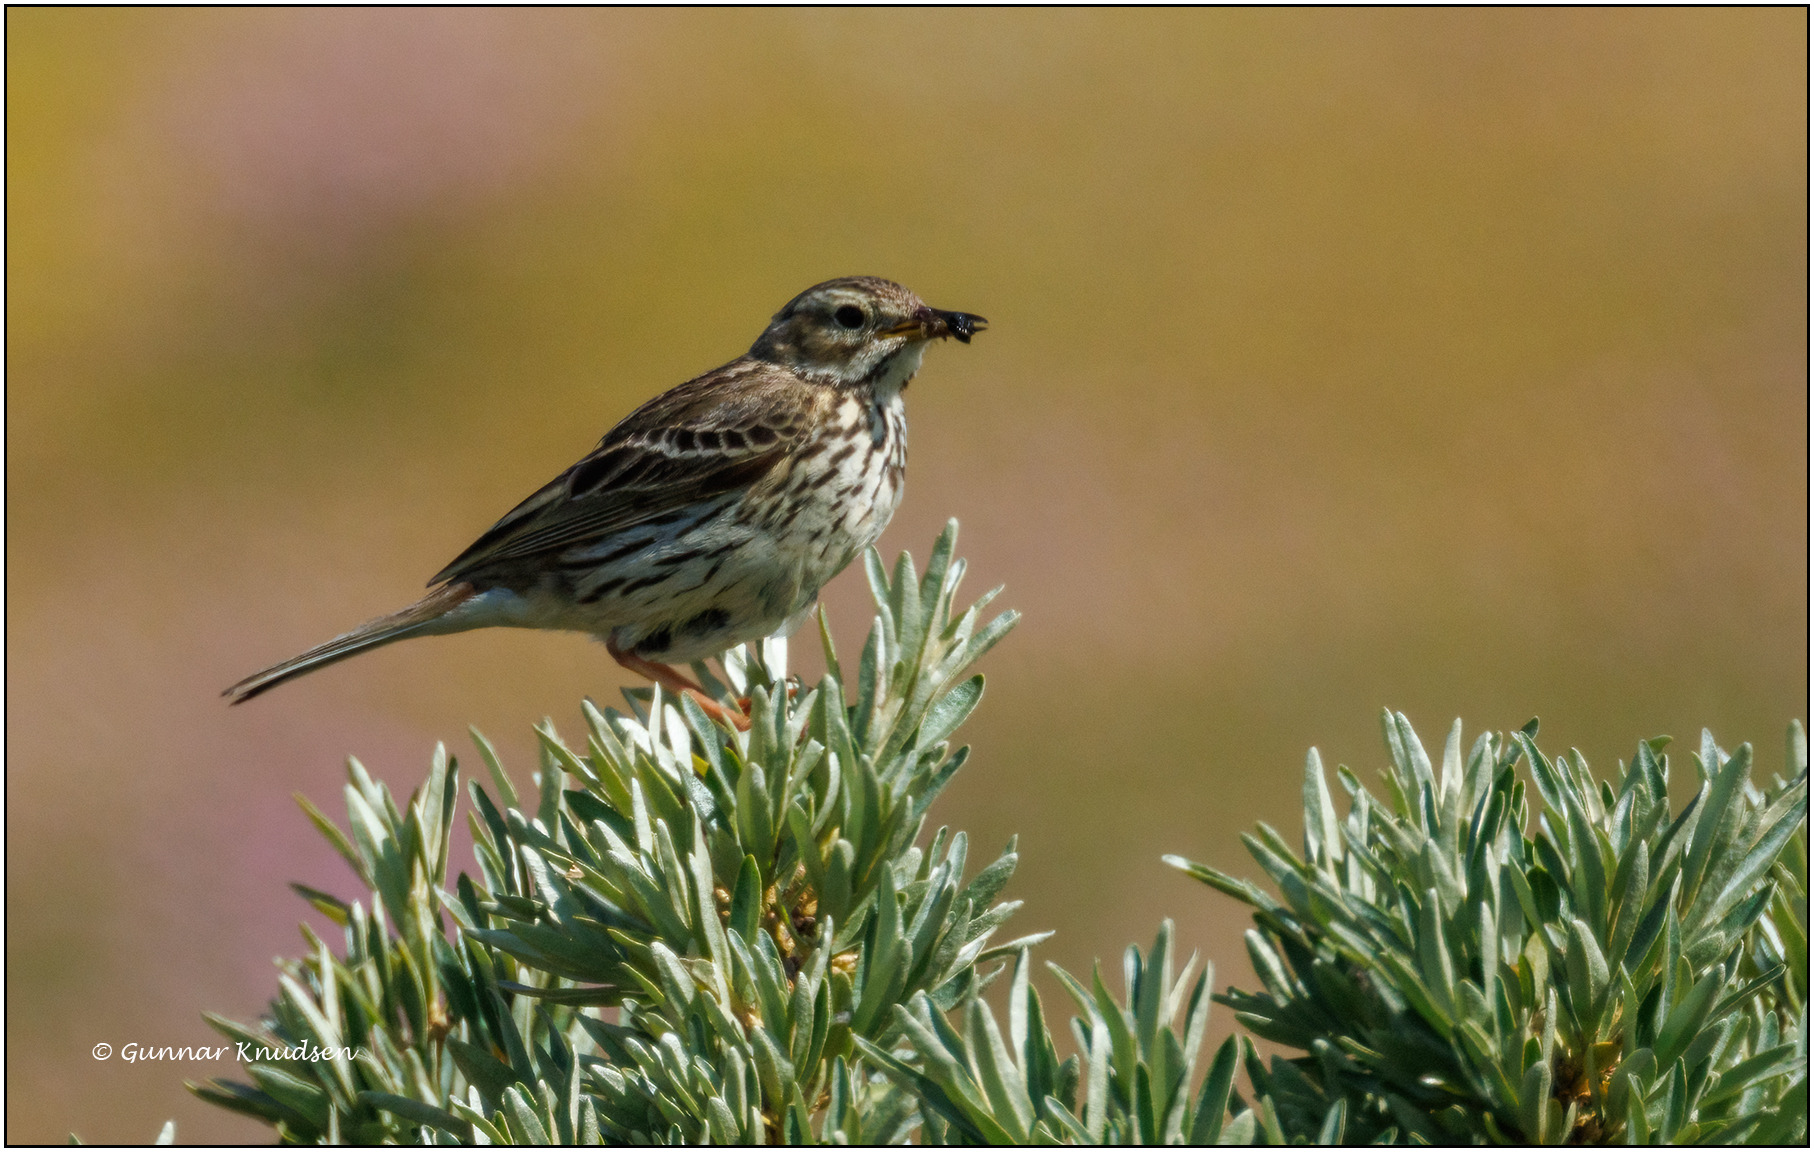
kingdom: Animalia
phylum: Chordata
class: Aves
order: Passeriformes
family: Motacillidae
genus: Anthus
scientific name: Anthus pratensis
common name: Engpiber
